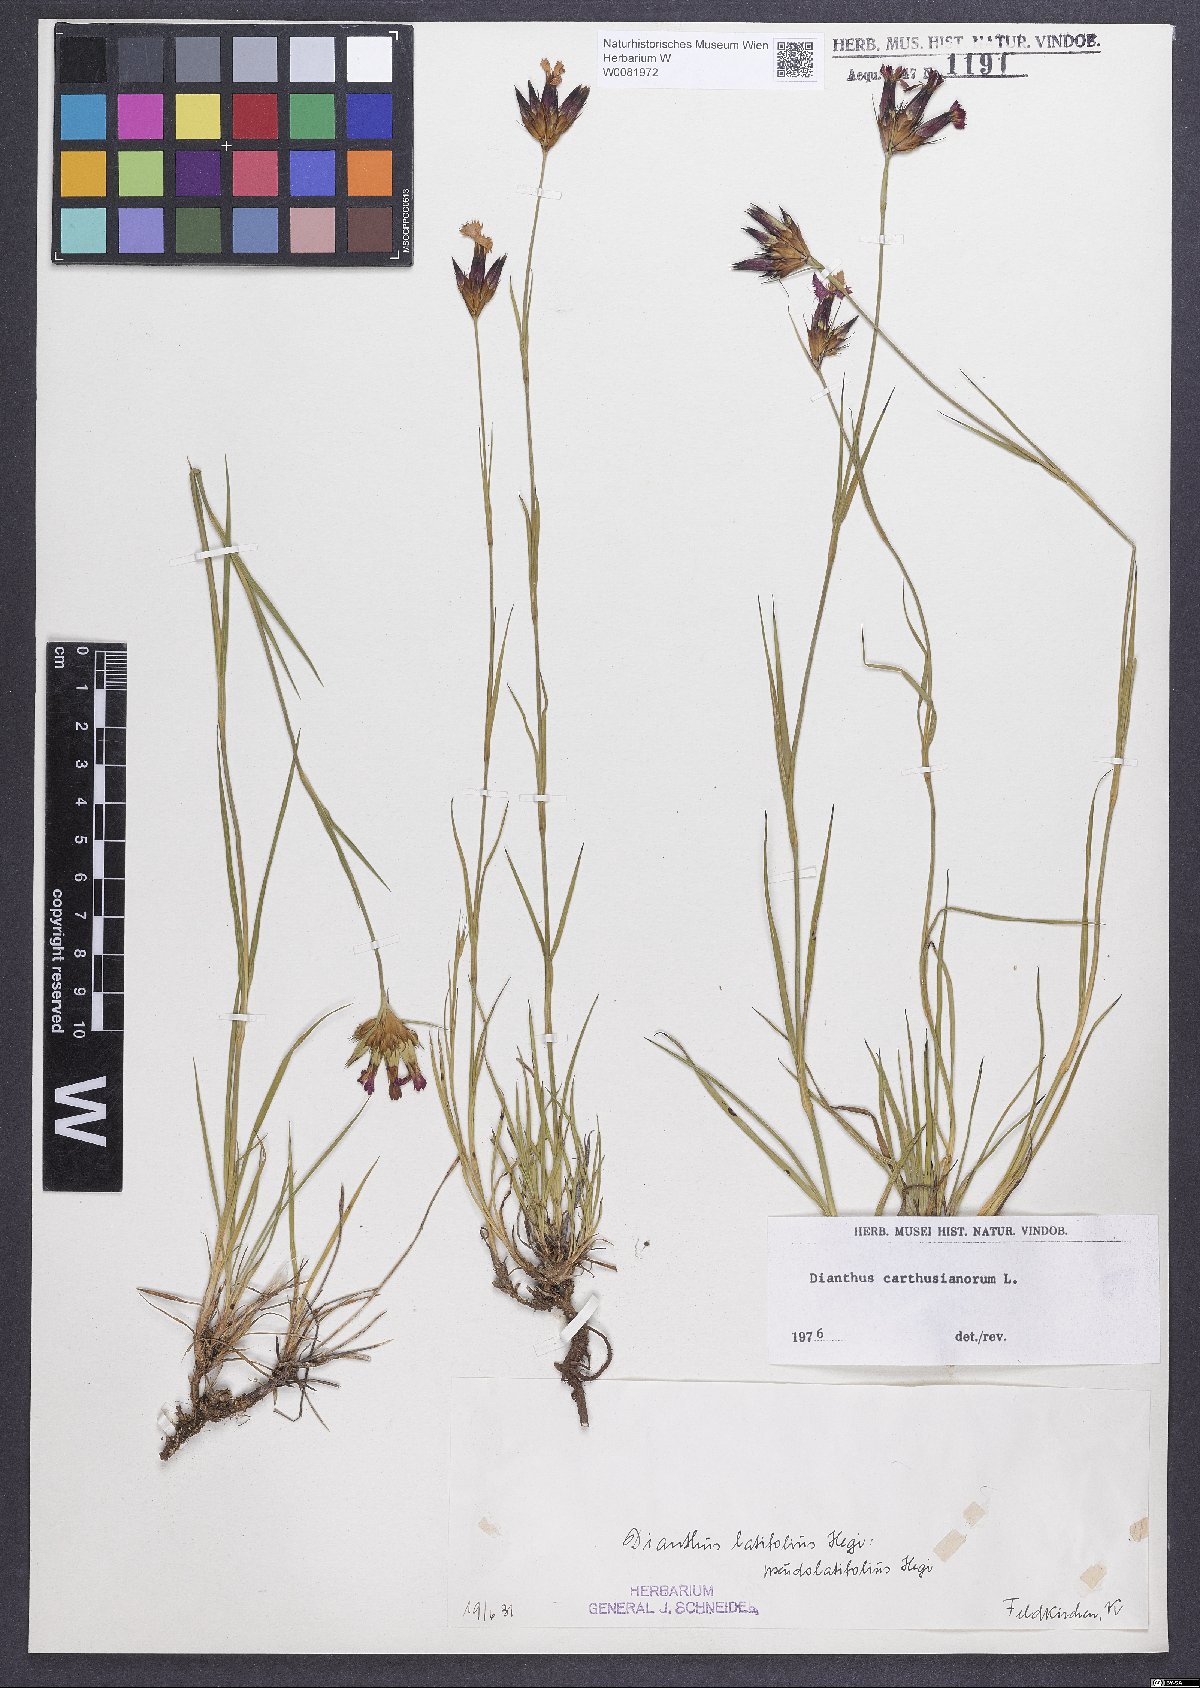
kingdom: Plantae
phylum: Tracheophyta
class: Magnoliopsida
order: Caryophyllales
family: Caryophyllaceae
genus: Dianthus
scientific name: Dianthus carthusianorum
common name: Carthusian pink
